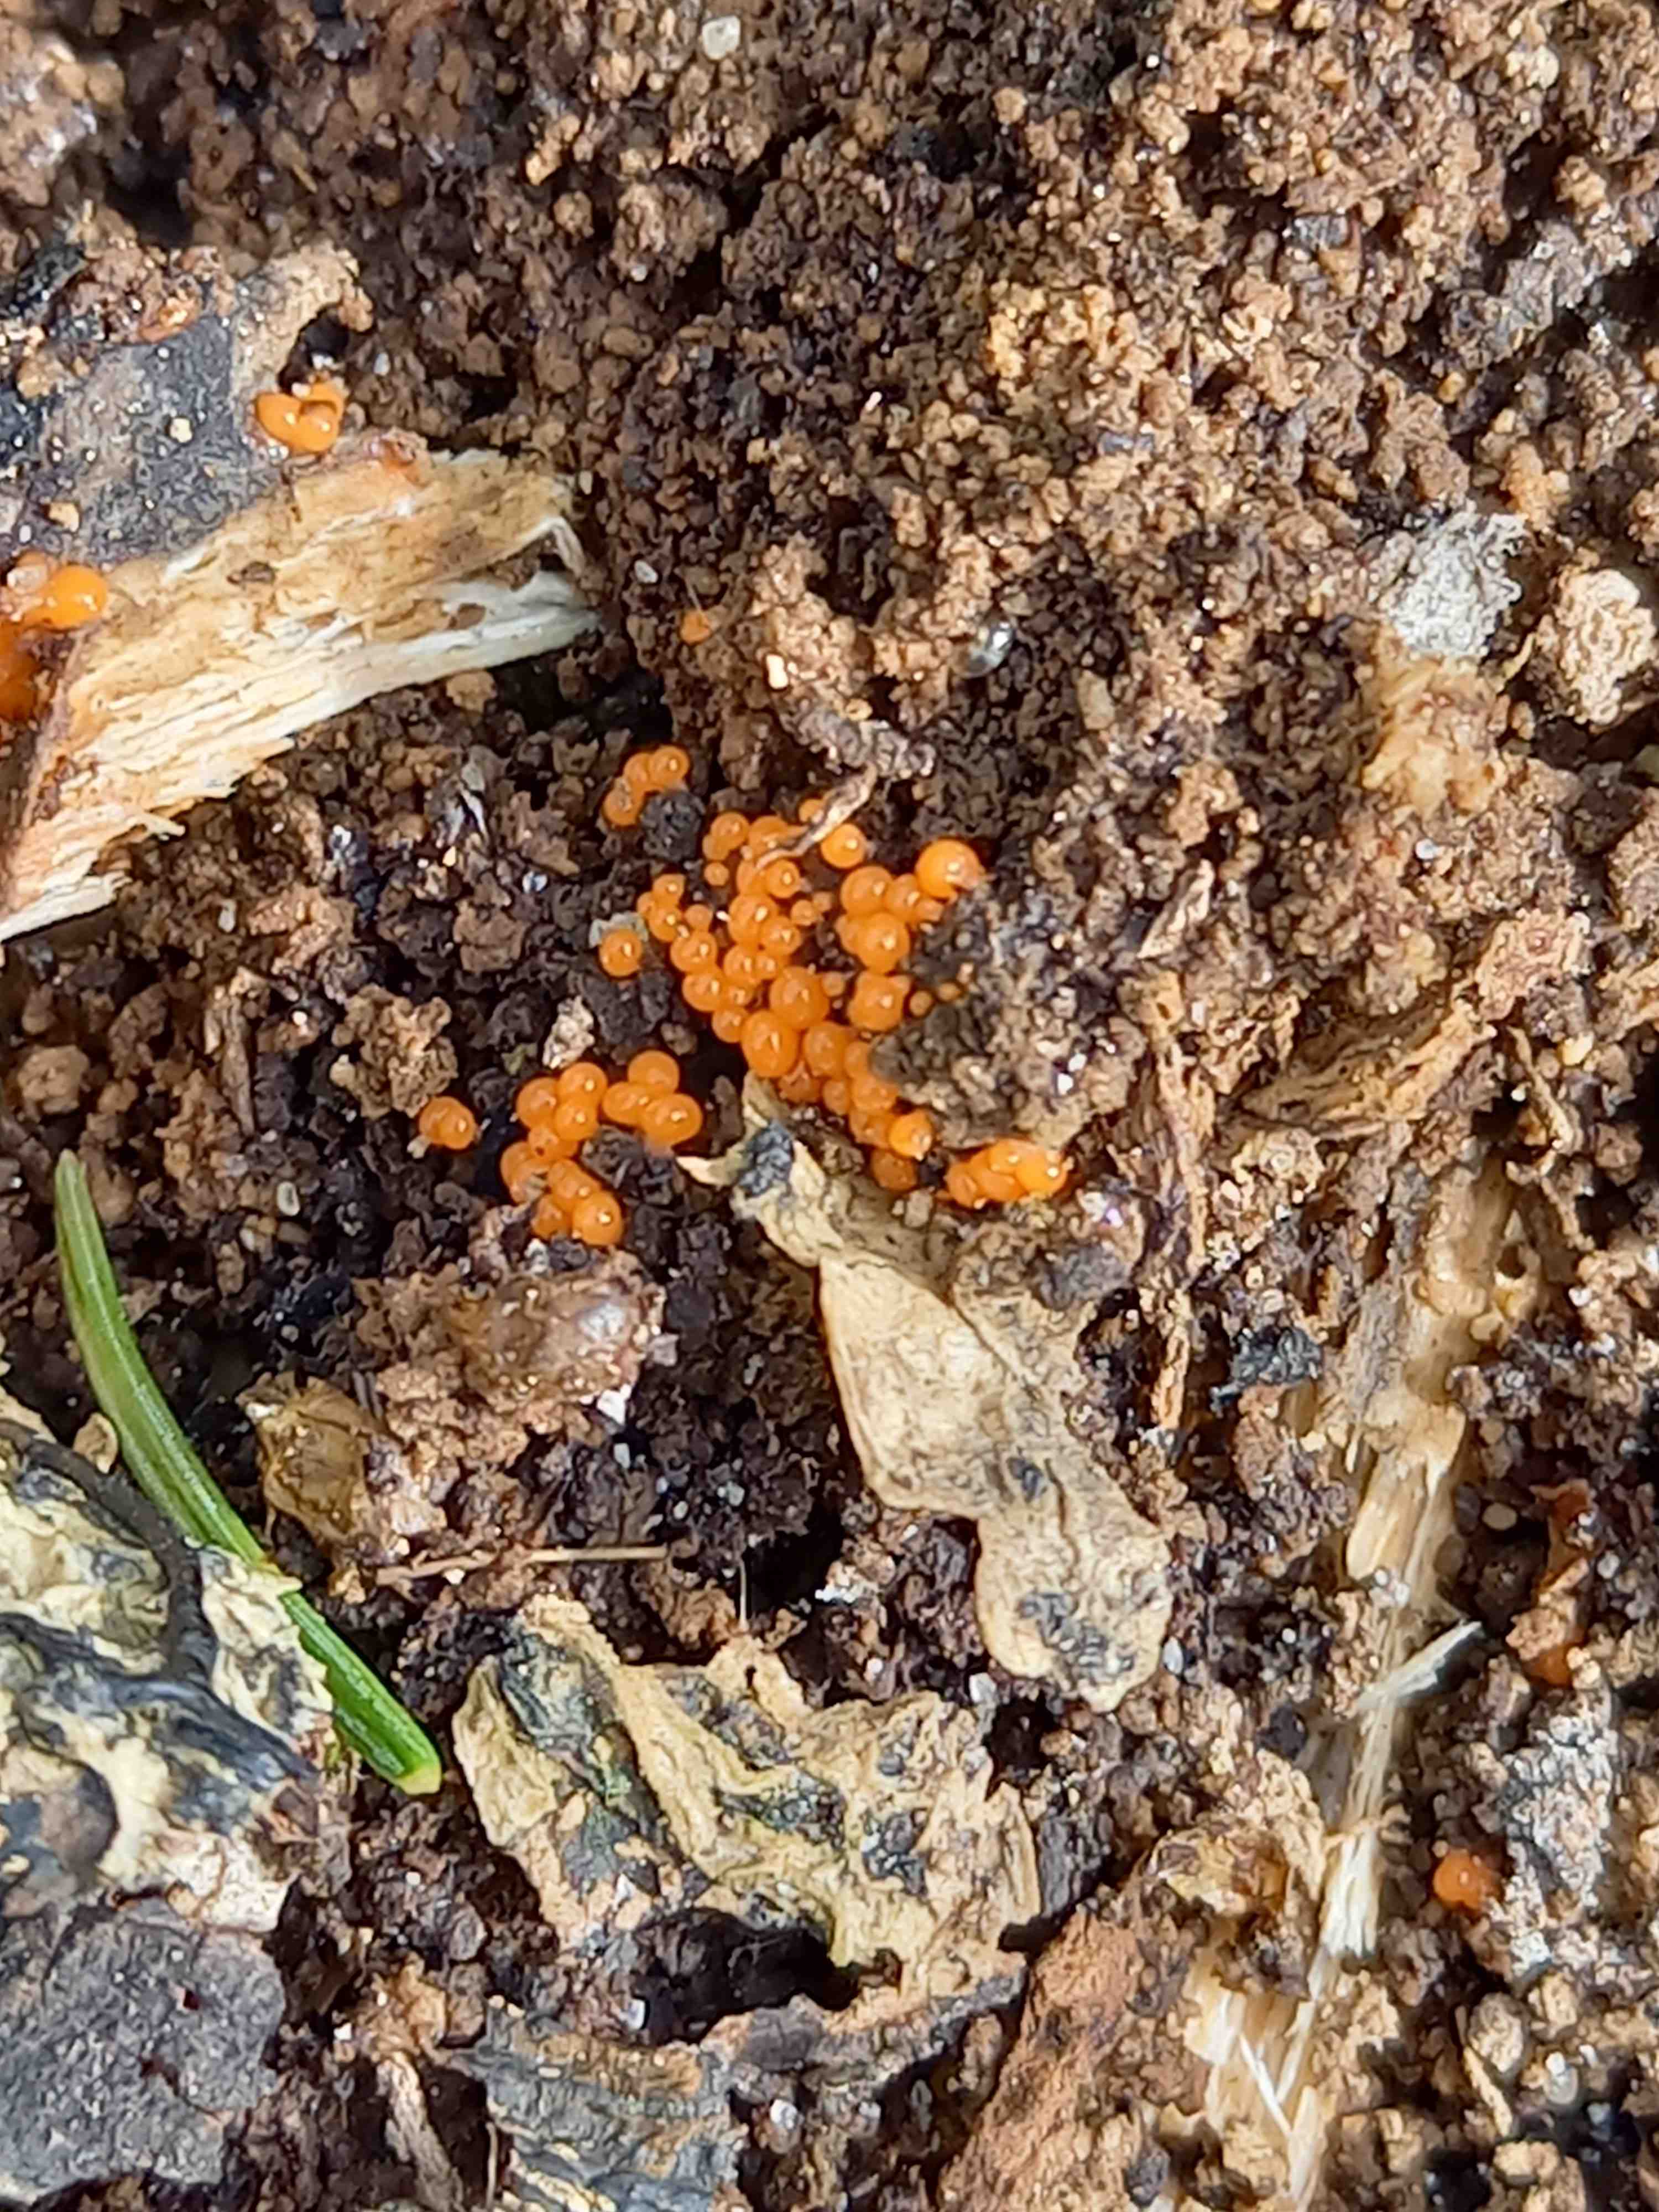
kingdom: Protozoa
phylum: Mycetozoa
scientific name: Mycetozoa
